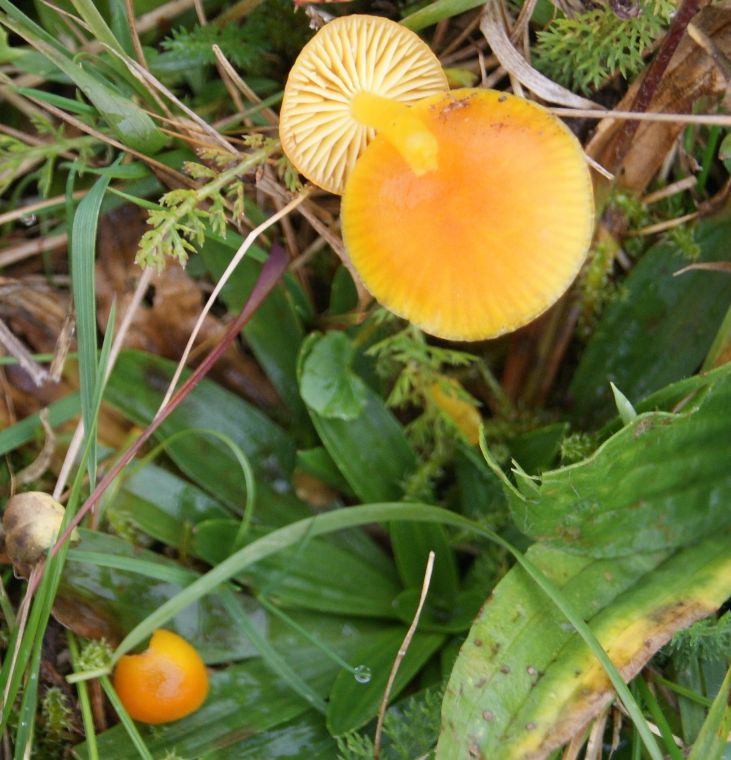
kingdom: Fungi
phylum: Basidiomycota
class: Agaricomycetes
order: Agaricales
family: Hygrophoraceae
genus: Hygrocybe
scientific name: Hygrocybe ceracea
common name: voksgul vokshat
